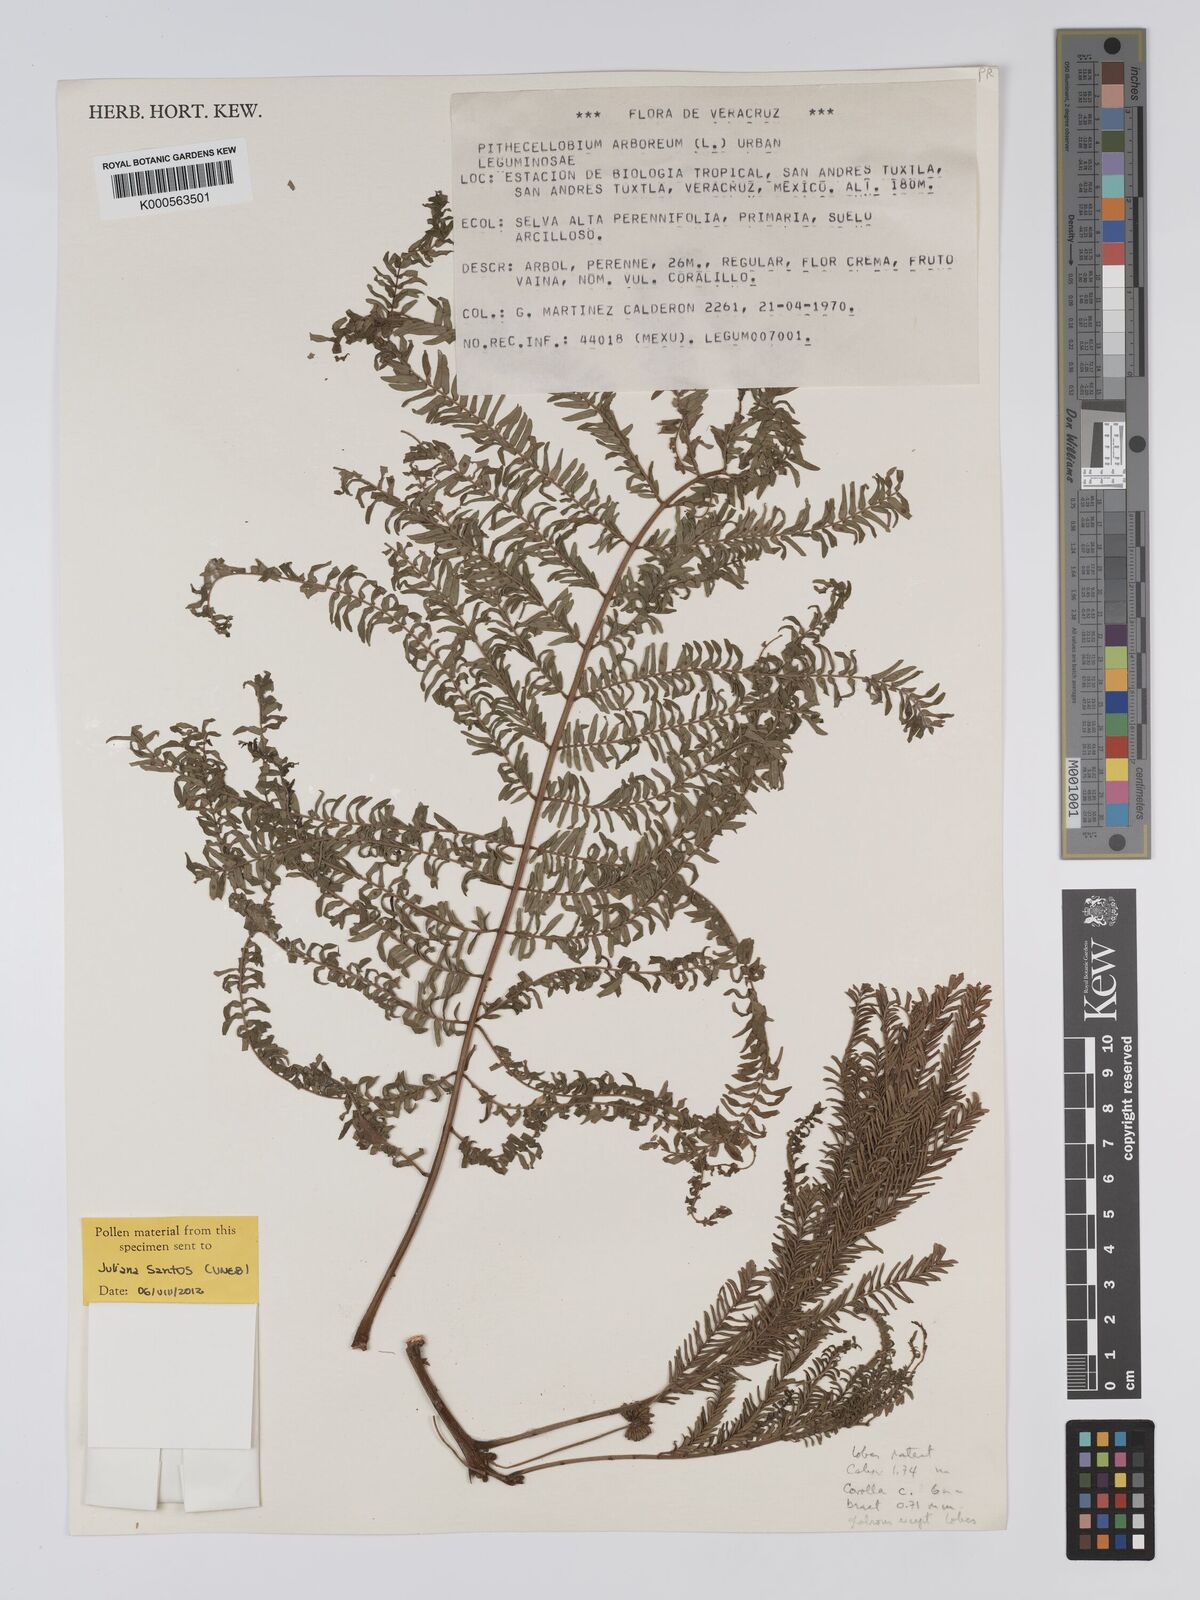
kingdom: Plantae
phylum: Tracheophyta
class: Magnoliopsida
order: Fabales
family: Fabaceae
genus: Cojoba
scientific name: Cojoba arborea
